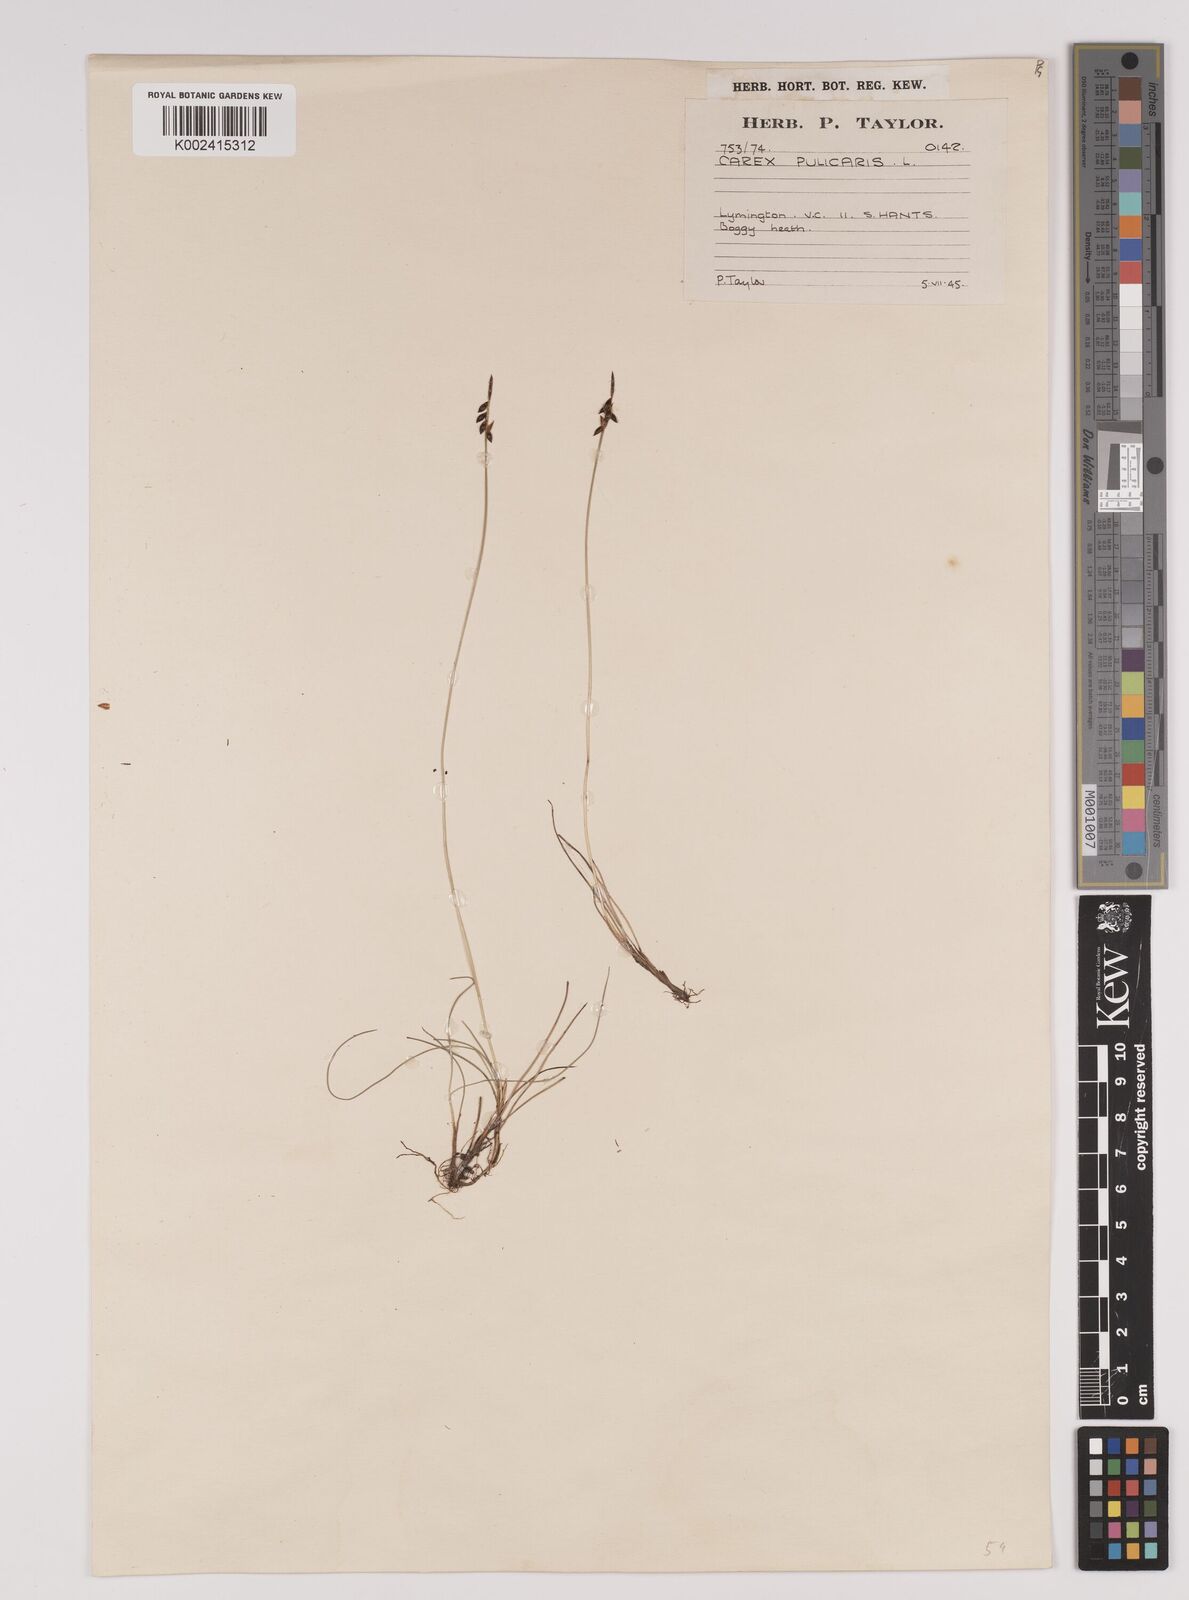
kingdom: Plantae
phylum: Tracheophyta
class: Liliopsida
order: Poales
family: Cyperaceae
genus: Carex
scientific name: Carex pulicaris
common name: Flea sedge
